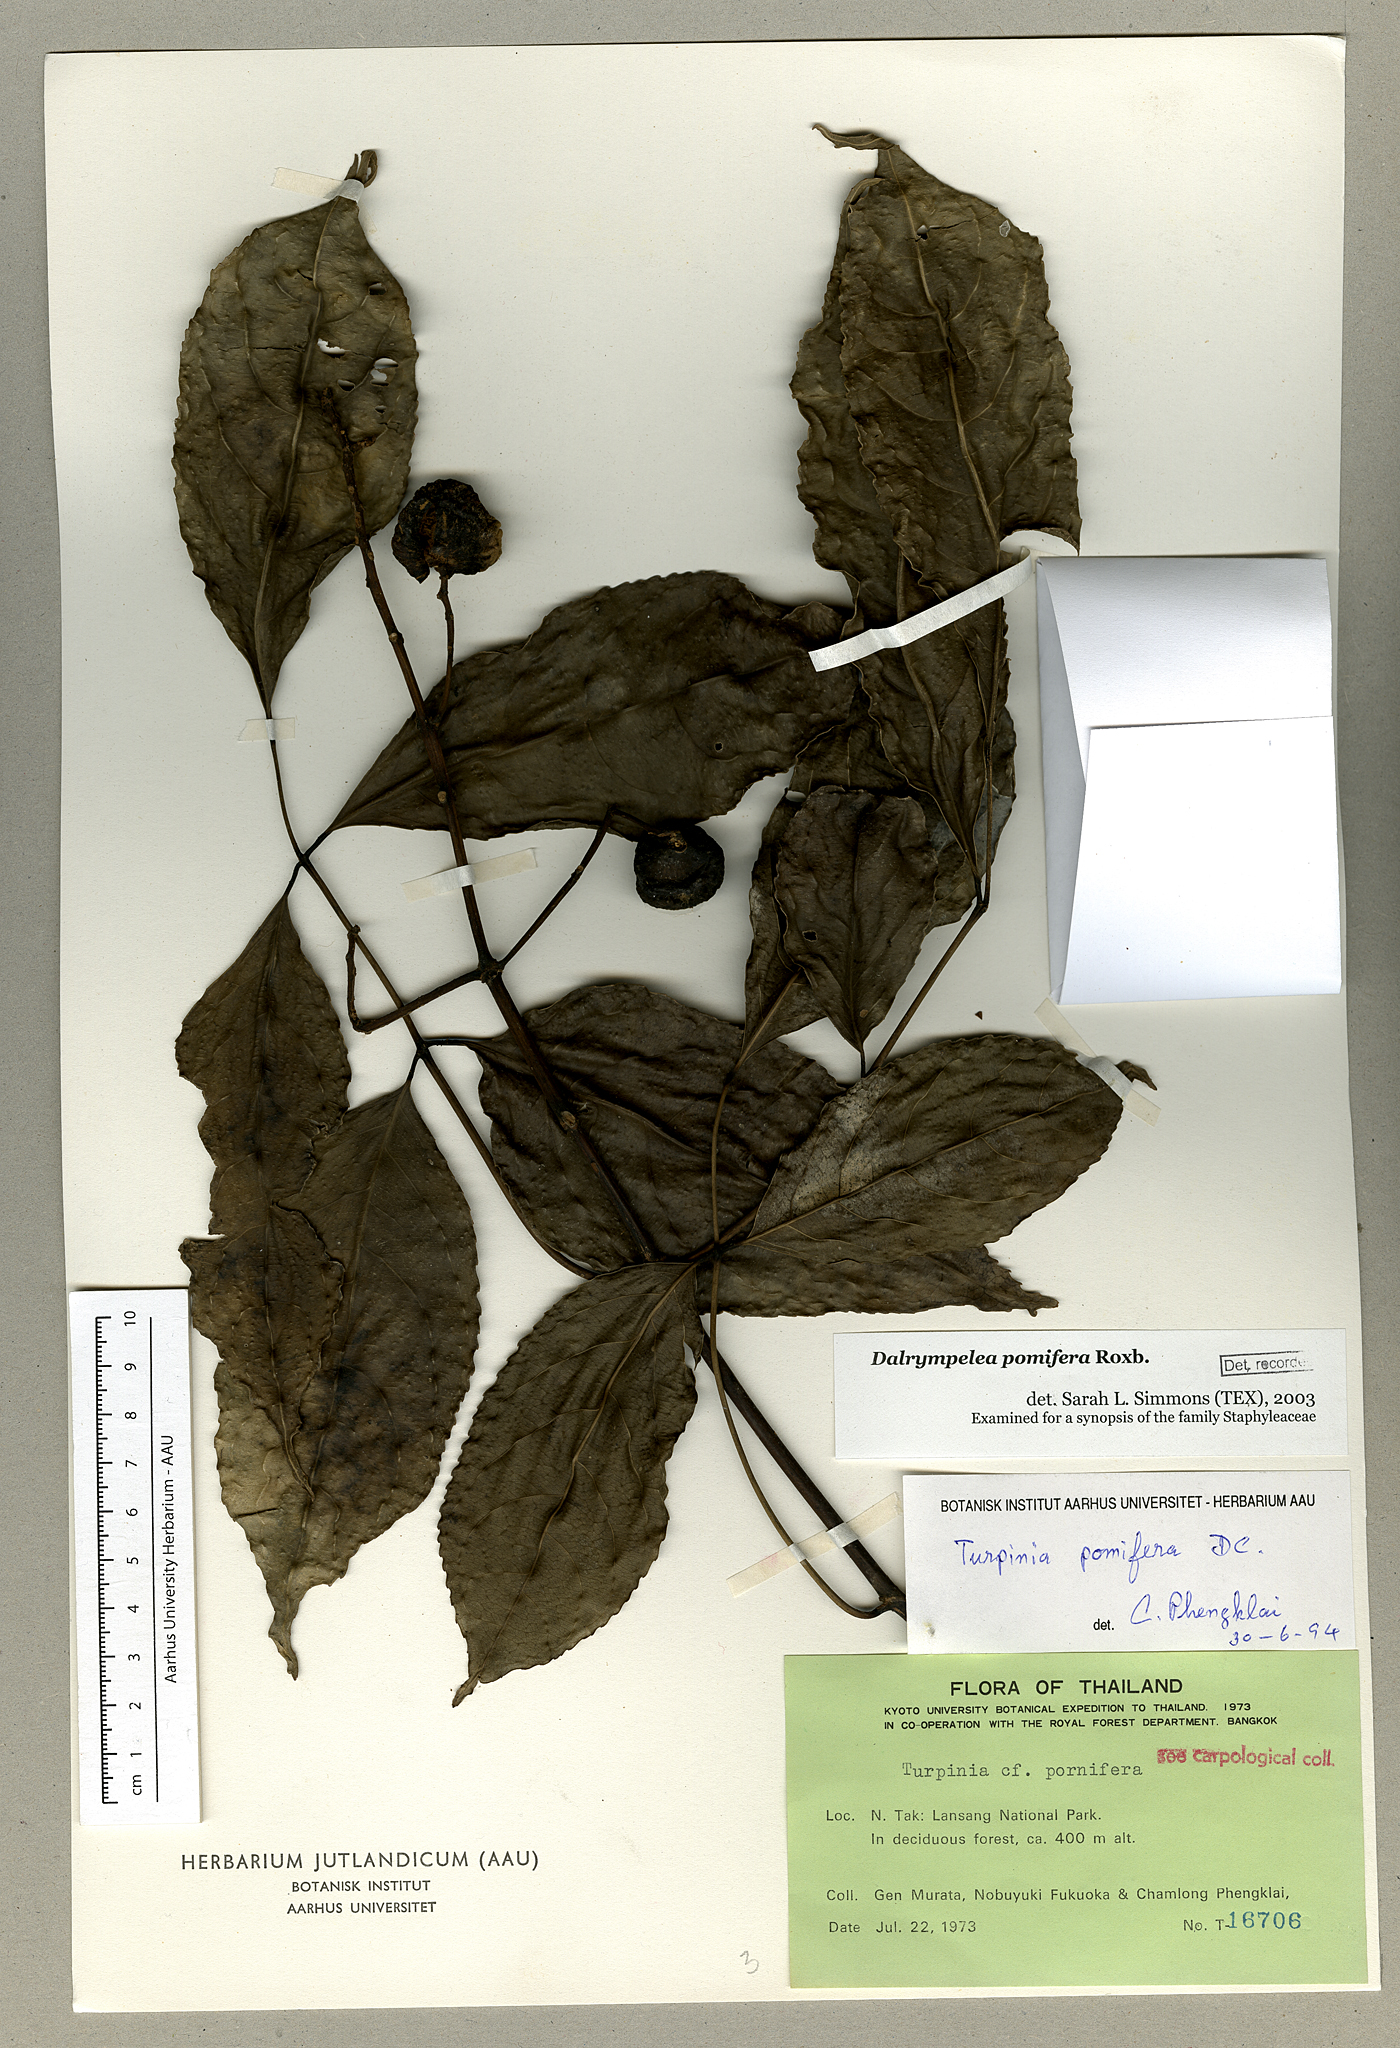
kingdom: Plantae
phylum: Tracheophyta
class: Magnoliopsida
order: Crossosomatales
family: Staphyleaceae
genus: Dalrympelea
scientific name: Dalrympelea pomifera
